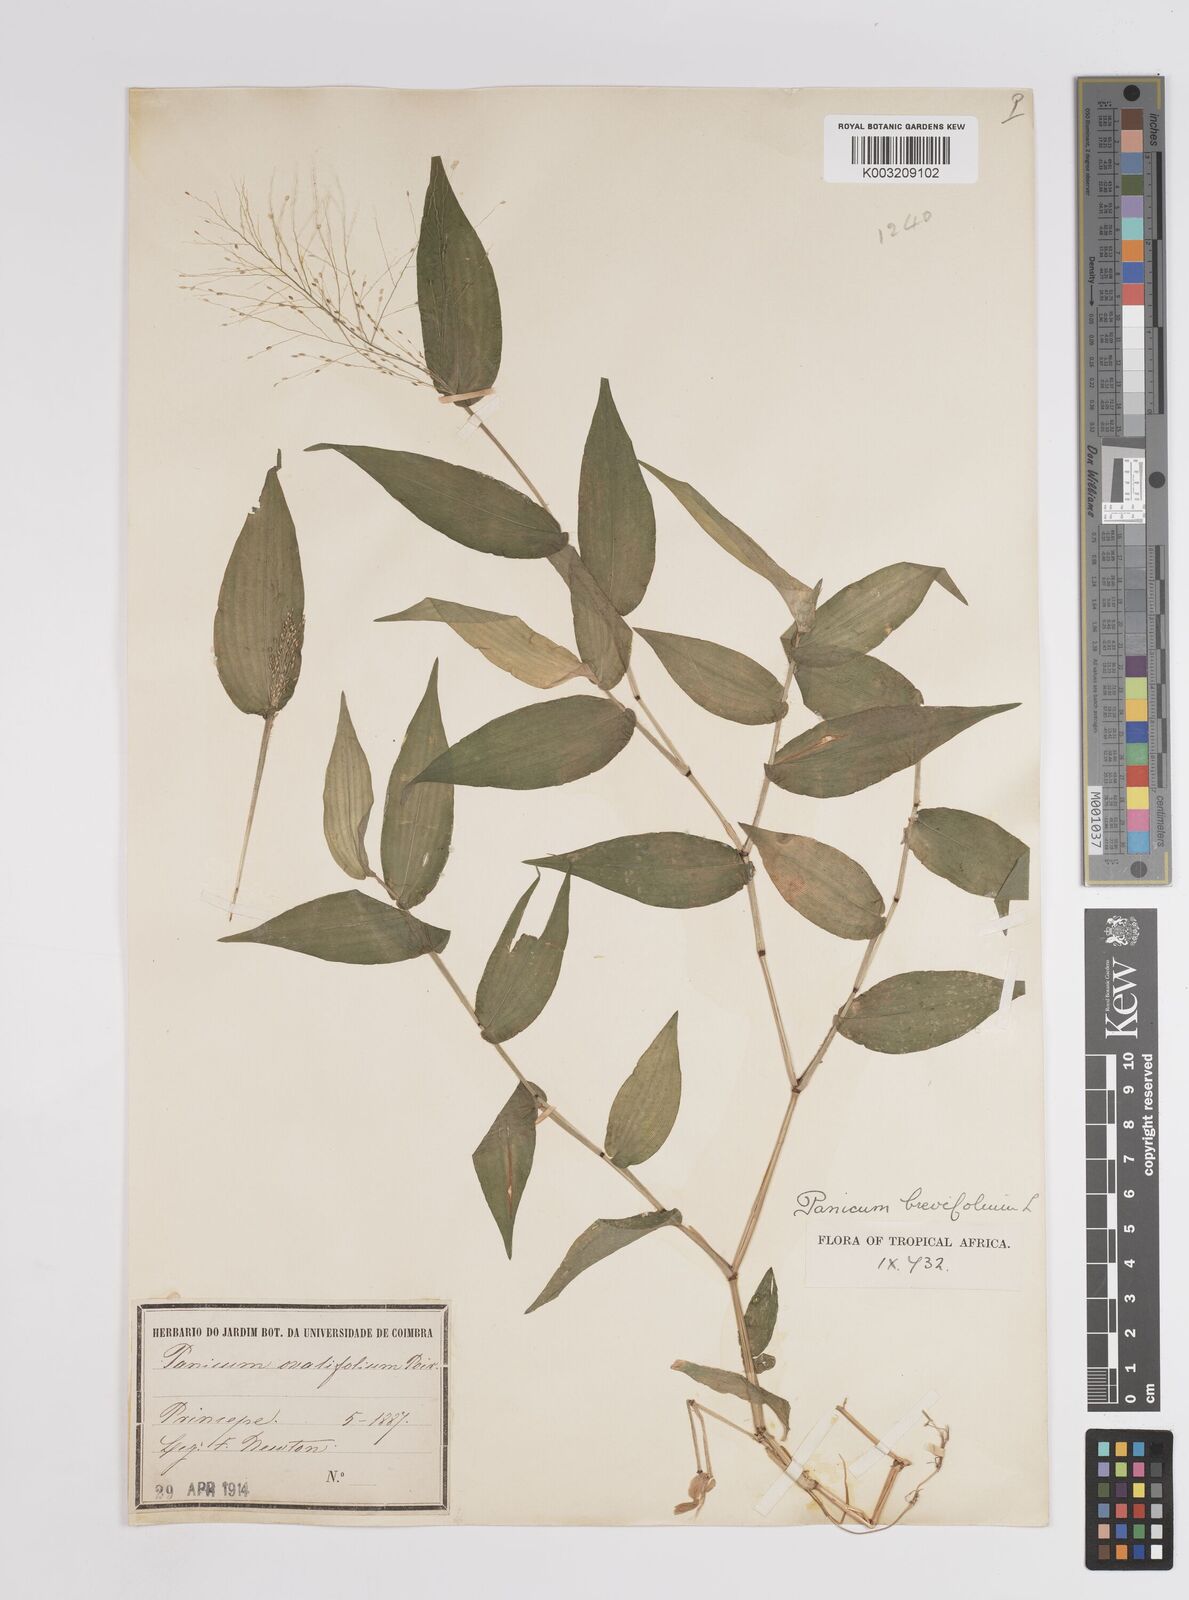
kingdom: Plantae
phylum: Tracheophyta
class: Liliopsida
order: Poales
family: Poaceae
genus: Panicum
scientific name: Panicum brevifolium
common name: Shortleaf panic grass
